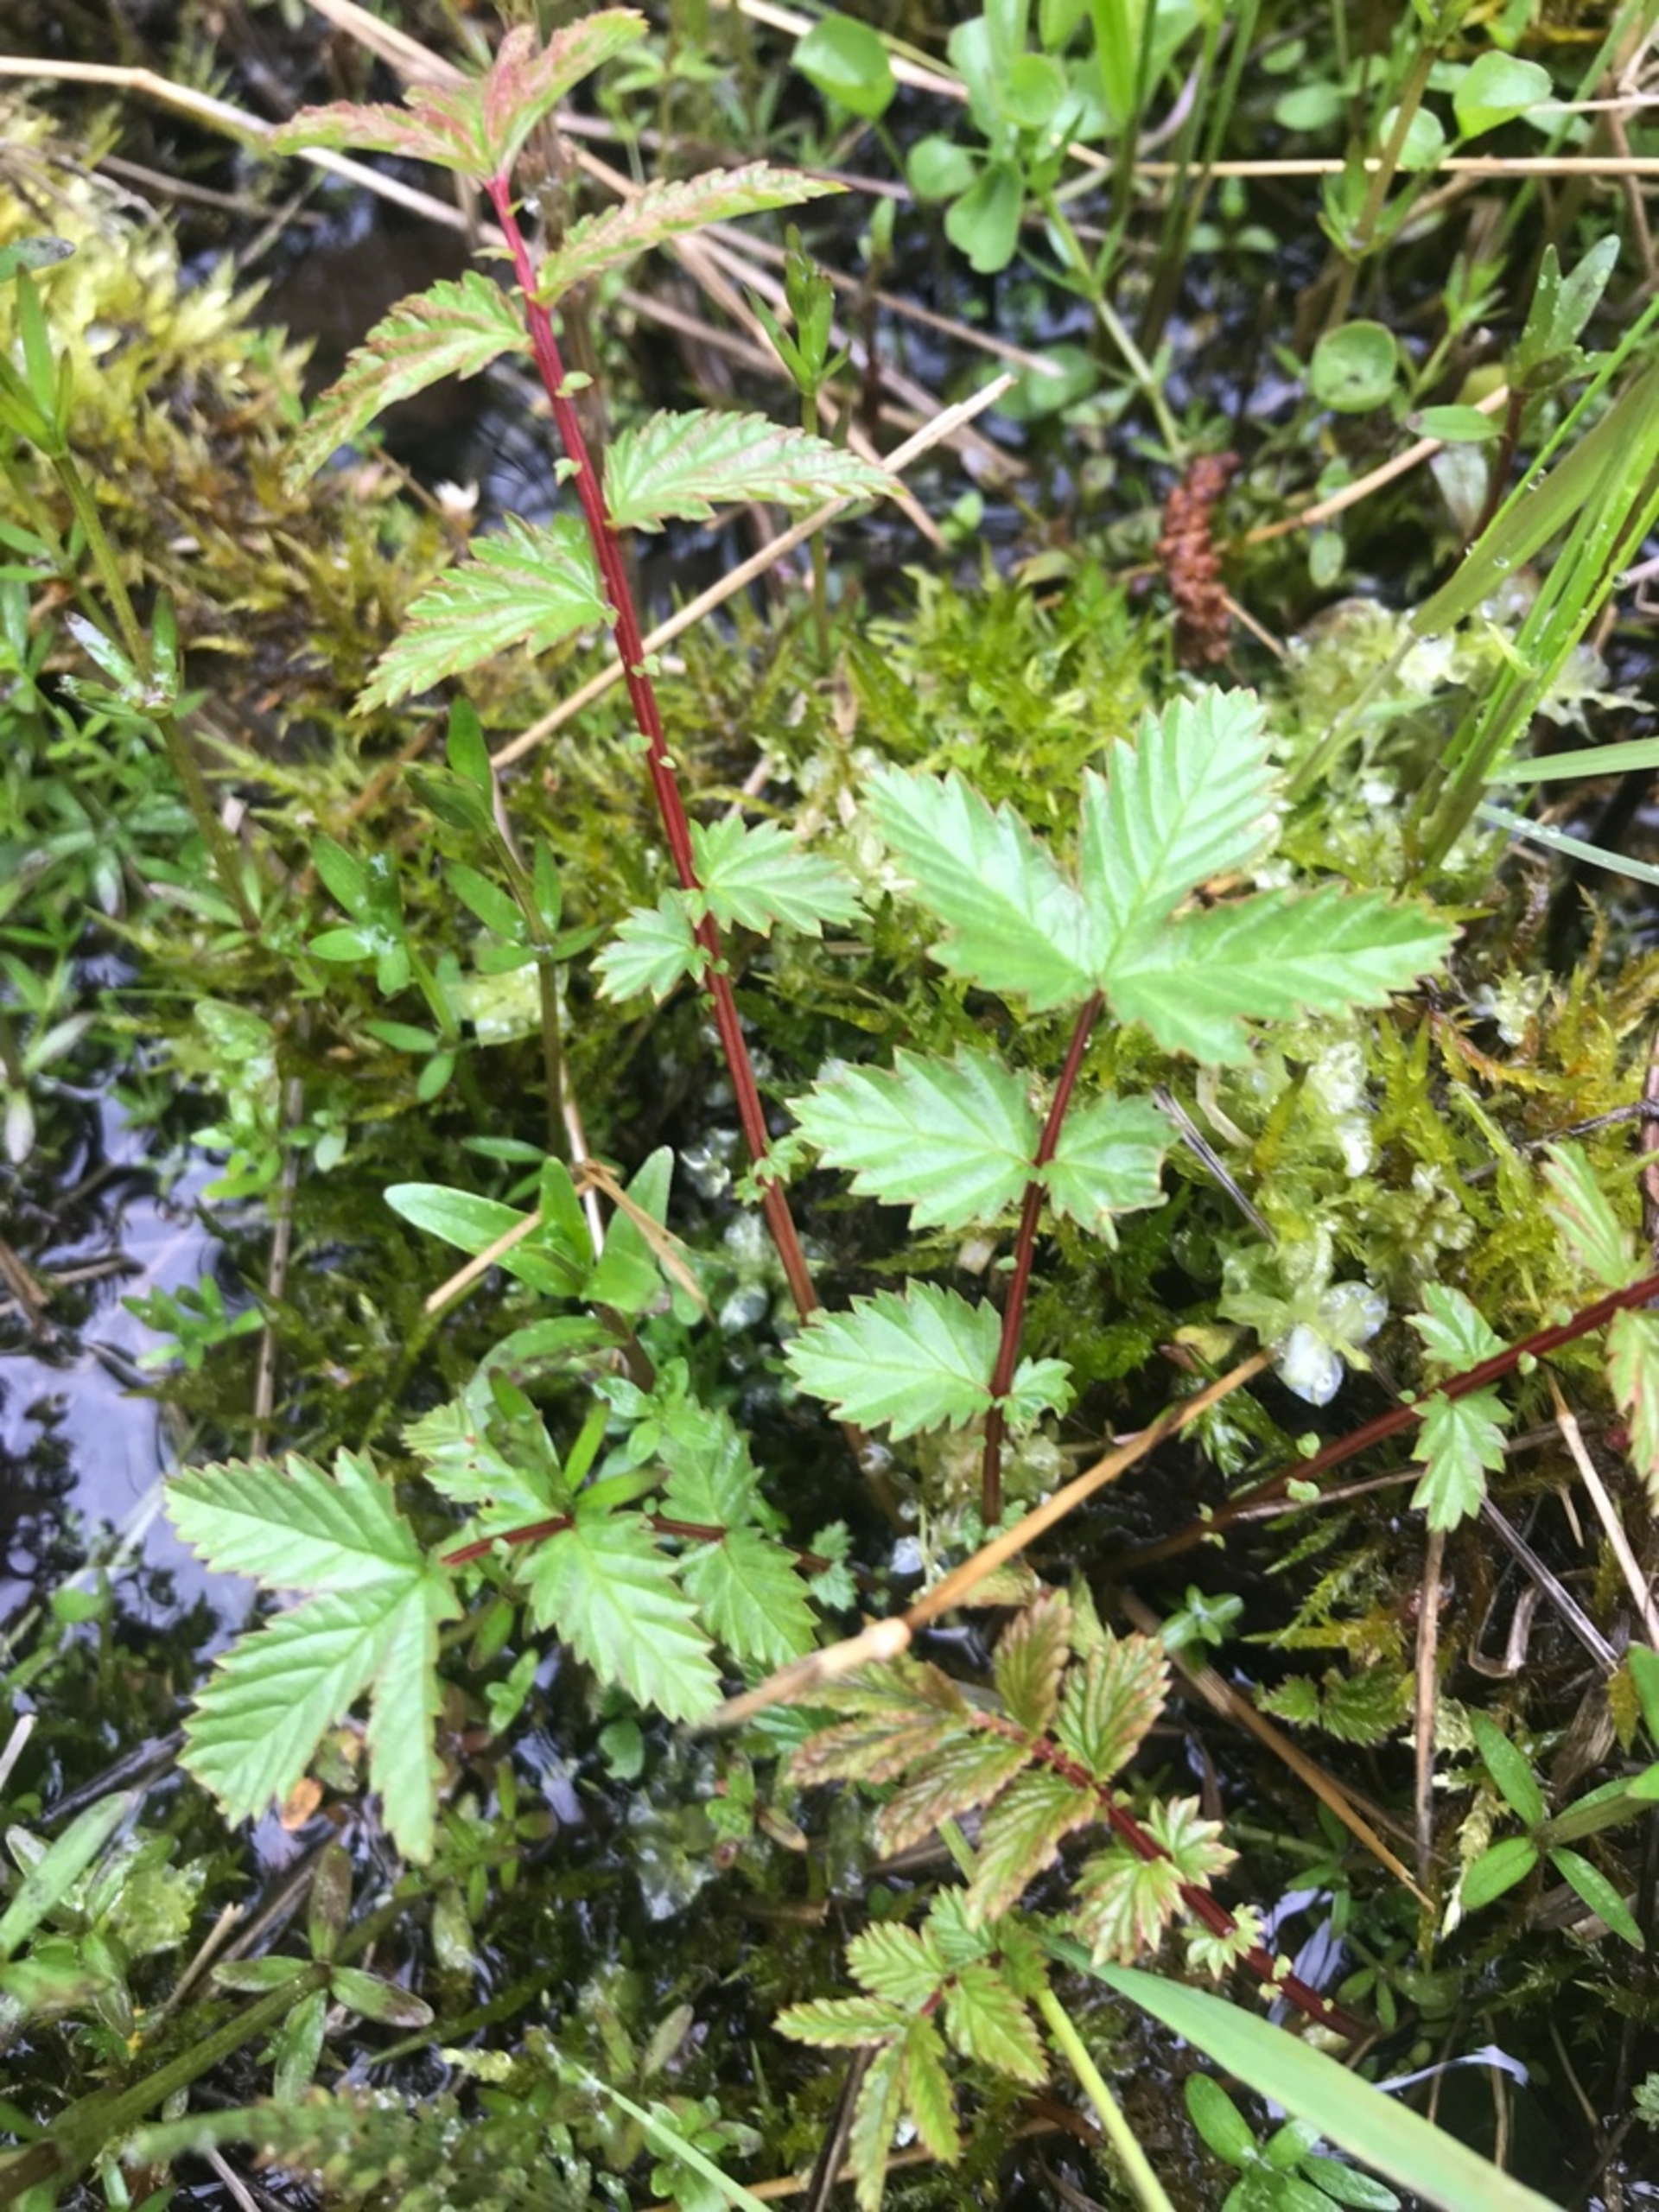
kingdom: Plantae
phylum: Tracheophyta
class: Magnoliopsida
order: Rosales
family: Rosaceae
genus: Filipendula
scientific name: Filipendula ulmaria
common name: Almindelig mjødurt
